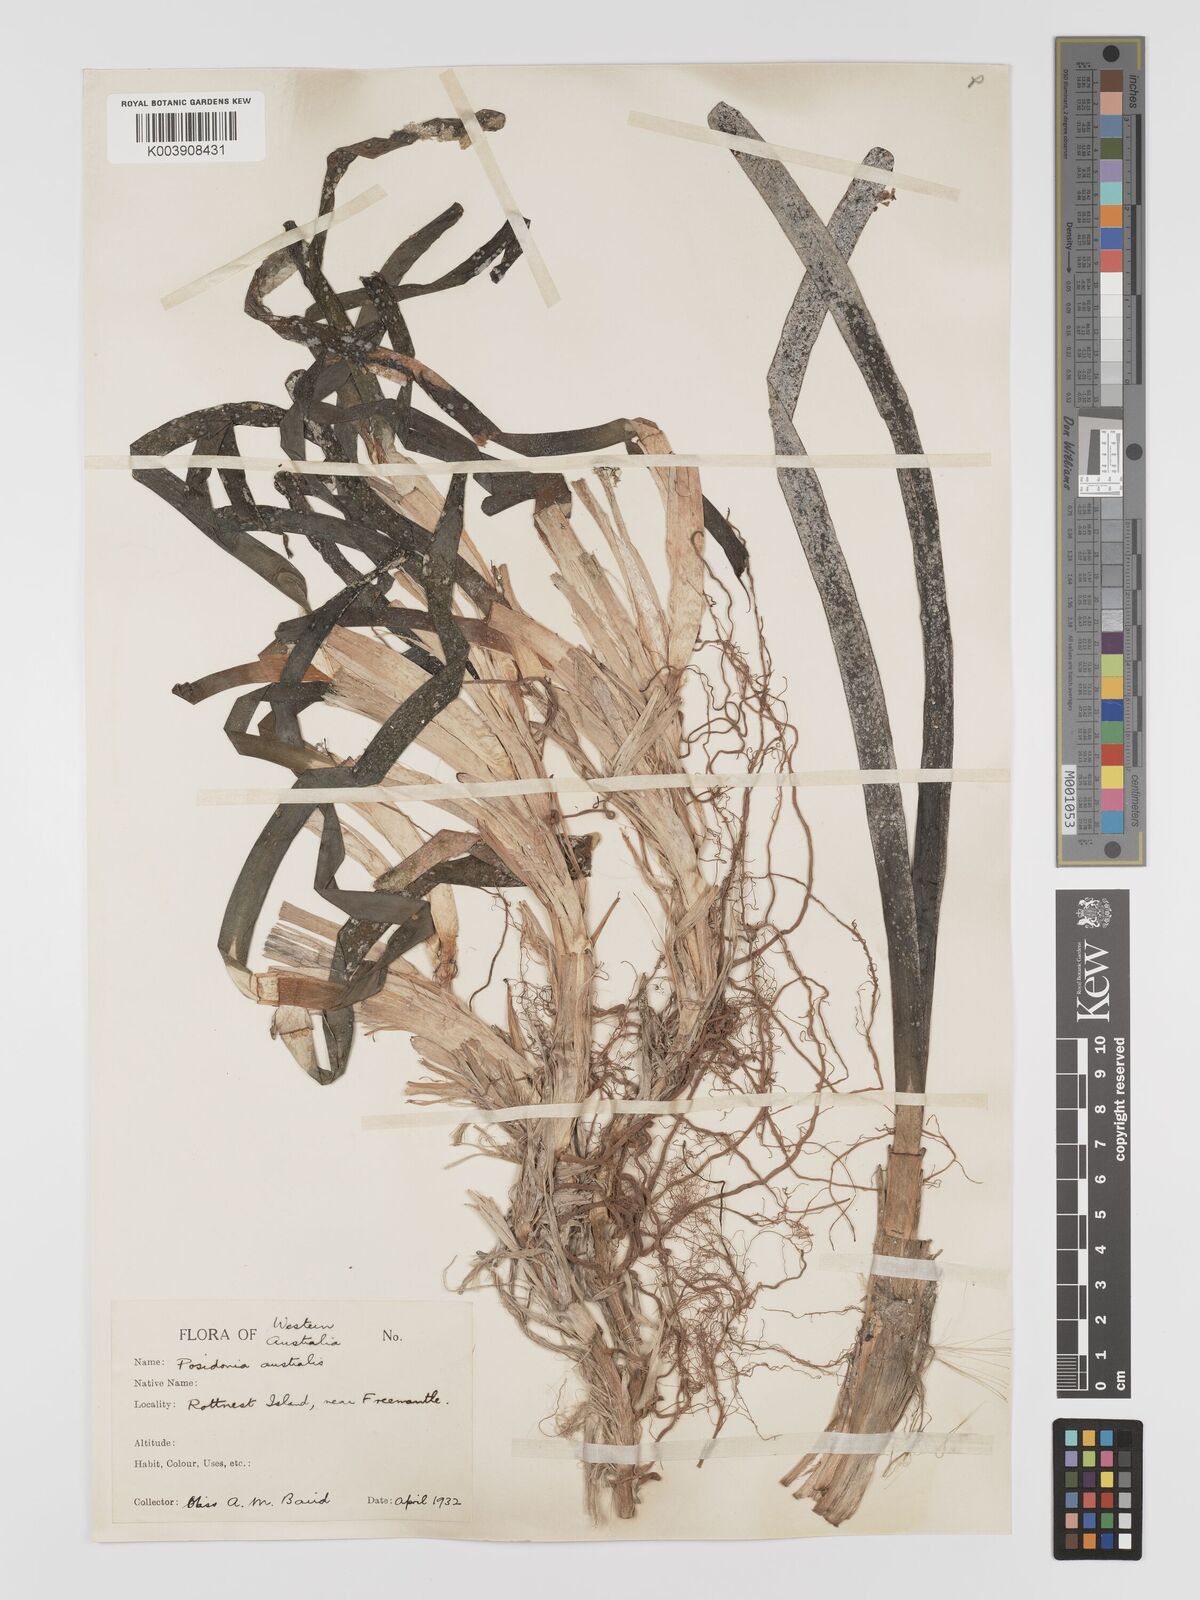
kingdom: Plantae
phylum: Tracheophyta
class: Liliopsida
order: Alismatales
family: Posidoniaceae
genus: Posidonia
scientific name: Posidonia australis
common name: Species code: pa
